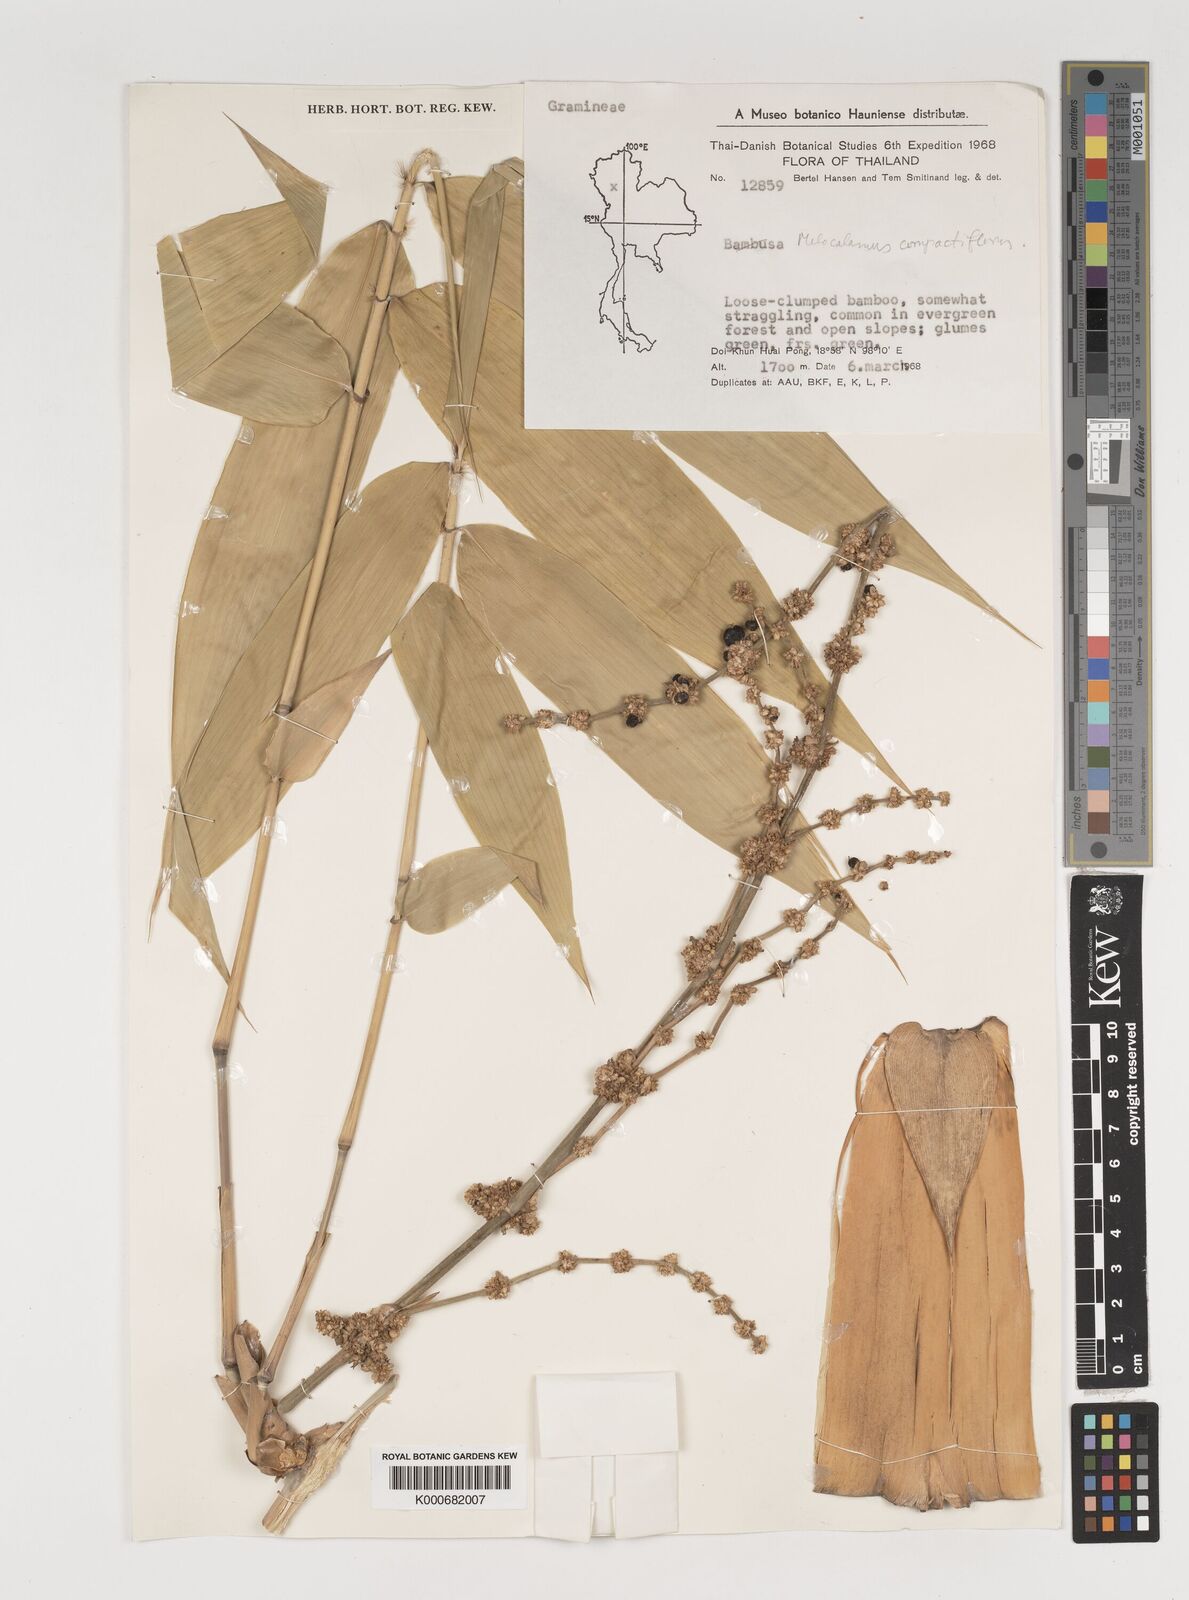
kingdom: Plantae
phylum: Tracheophyta
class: Liliopsida
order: Poales
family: Poaceae
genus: Melocalamus
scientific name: Melocalamus compactiflorus
